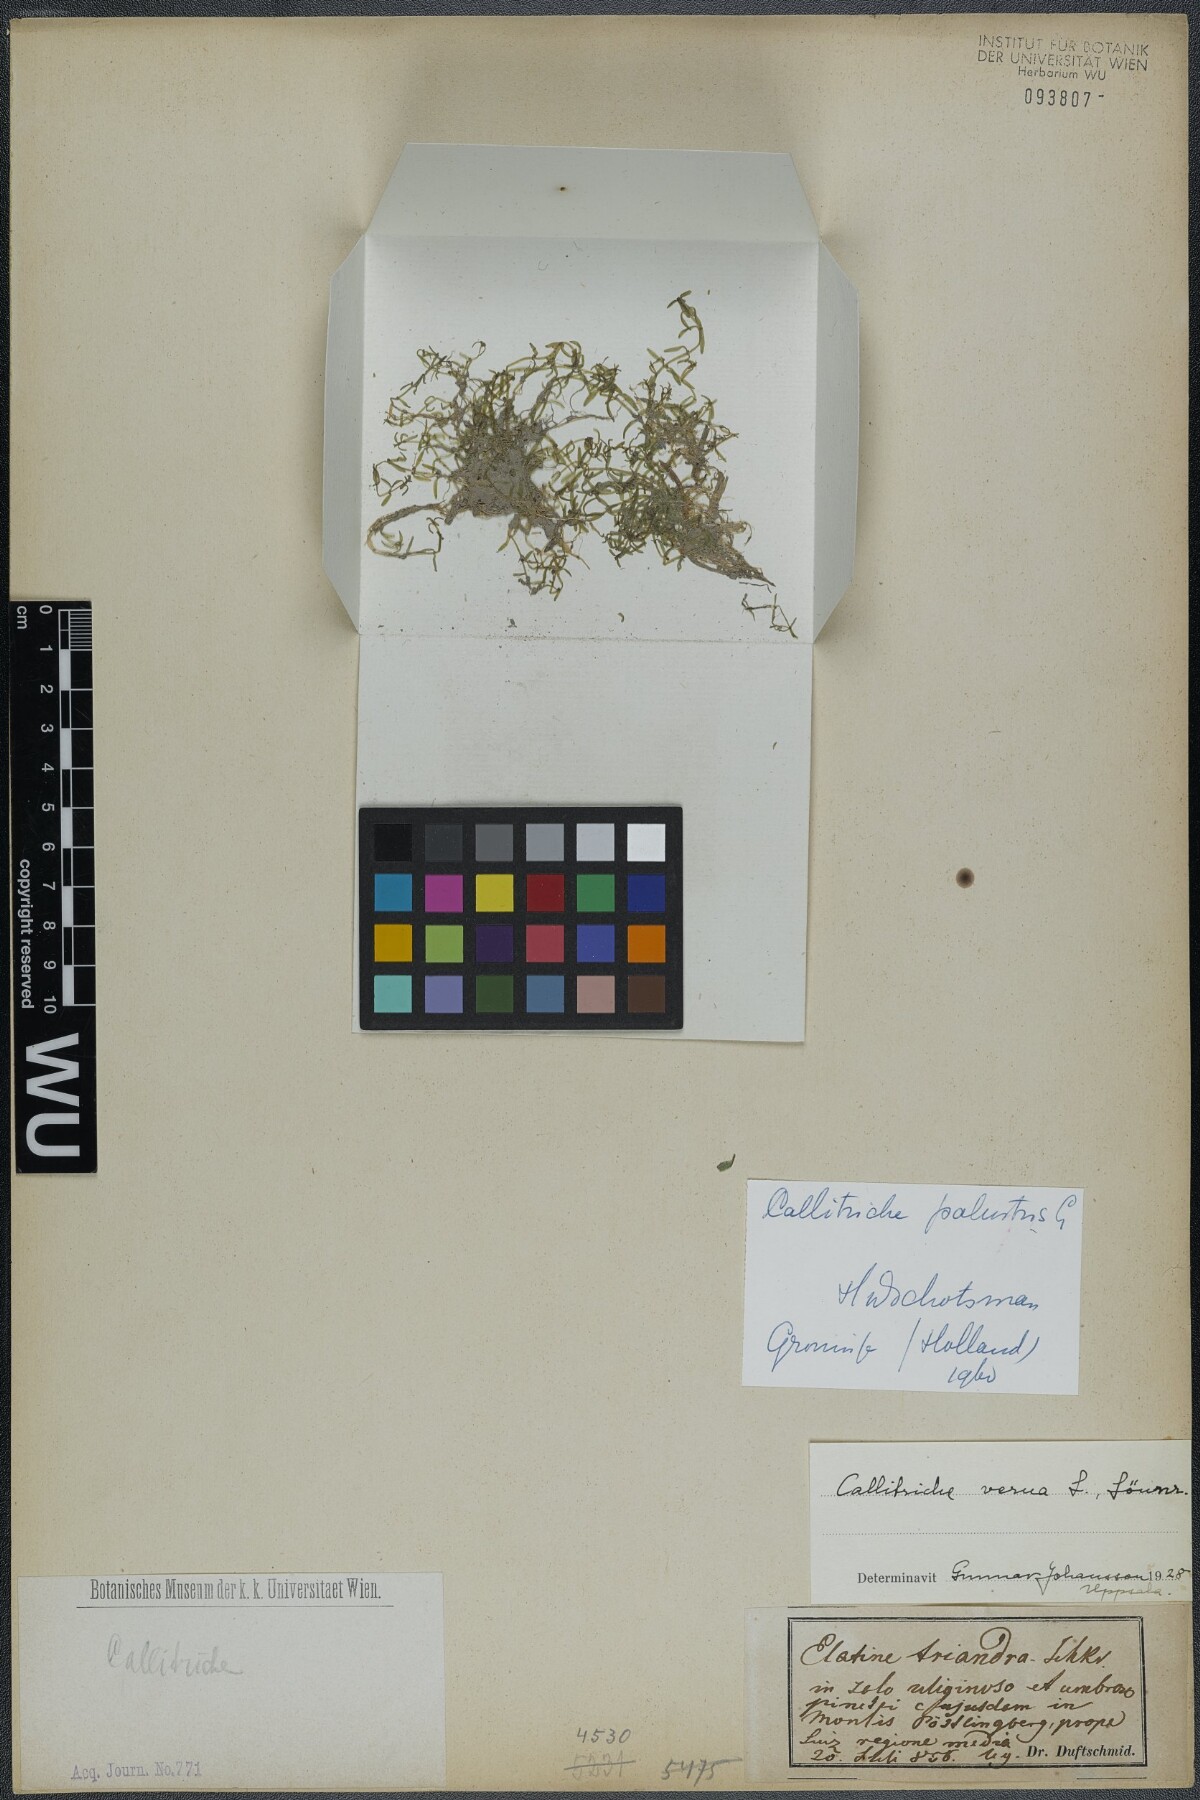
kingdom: Plantae
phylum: Tracheophyta
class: Magnoliopsida
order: Lamiales
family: Plantaginaceae
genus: Callitriche
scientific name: Callitriche palustris
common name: Spring water-starwort
